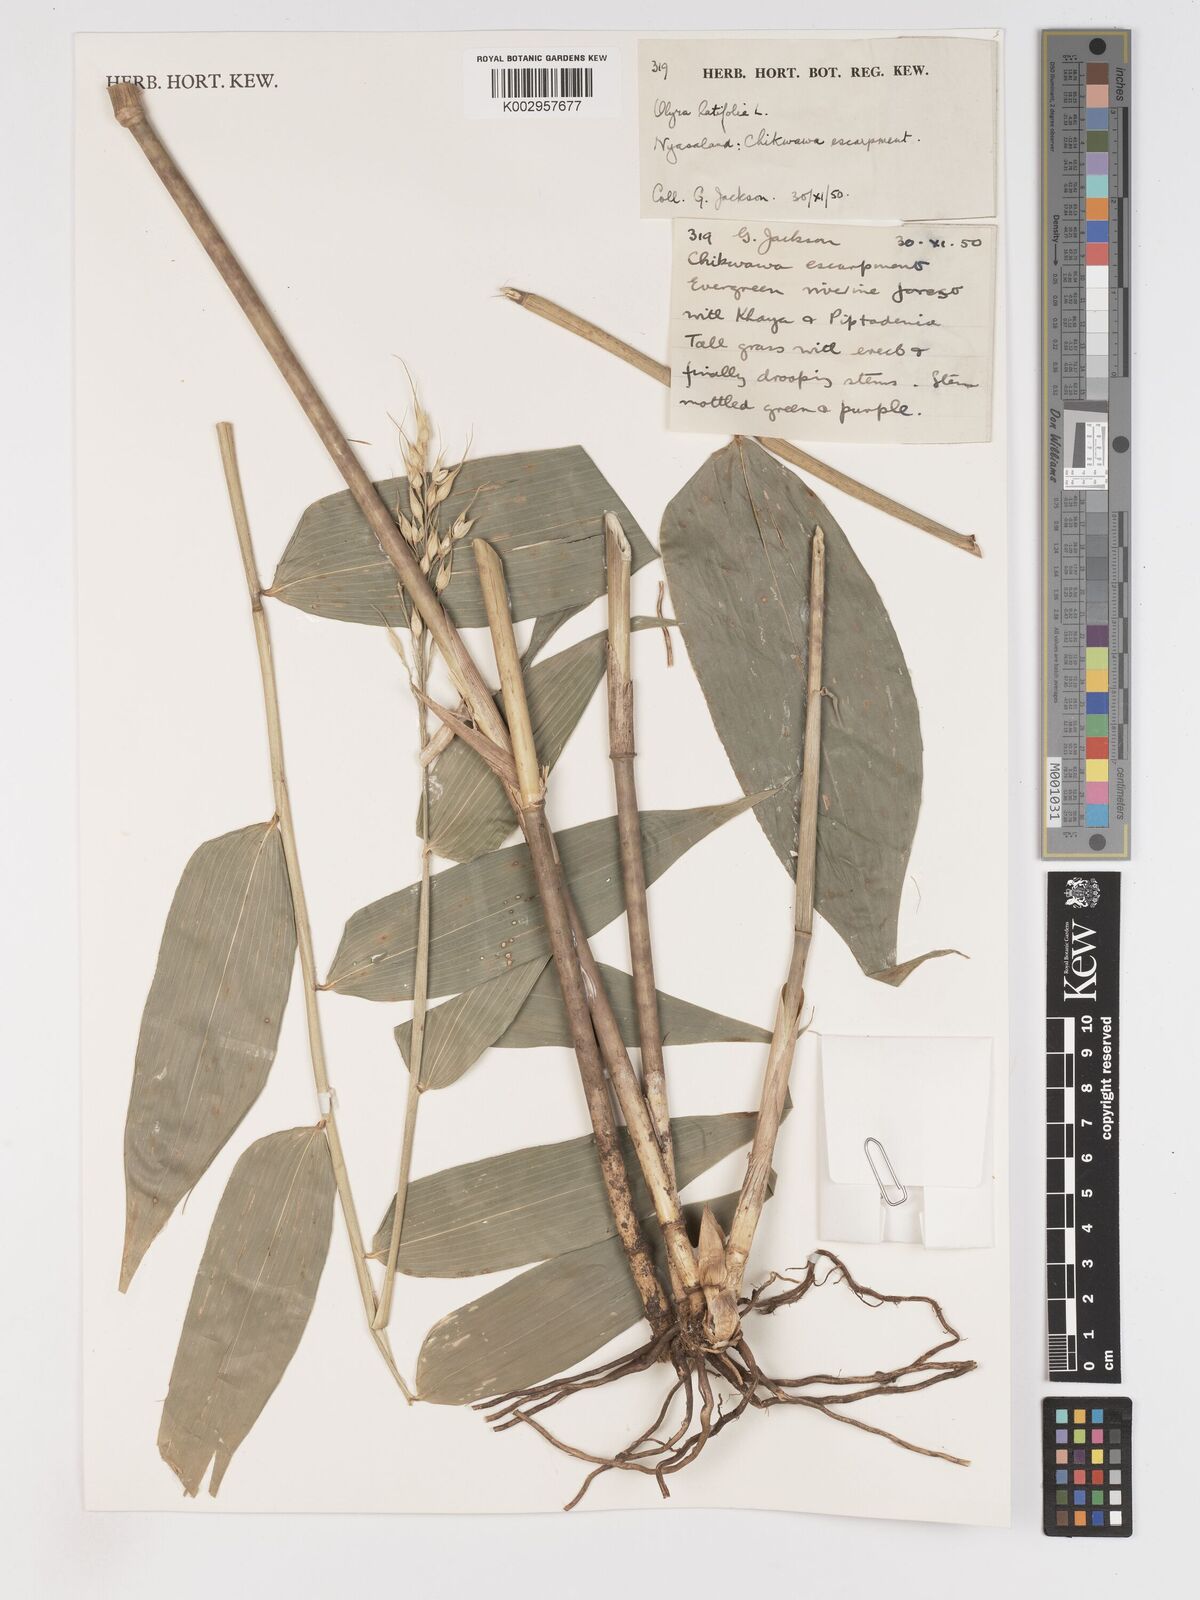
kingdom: Plantae
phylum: Tracheophyta
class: Liliopsida
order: Poales
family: Poaceae
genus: Olyra
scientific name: Olyra latifolia
